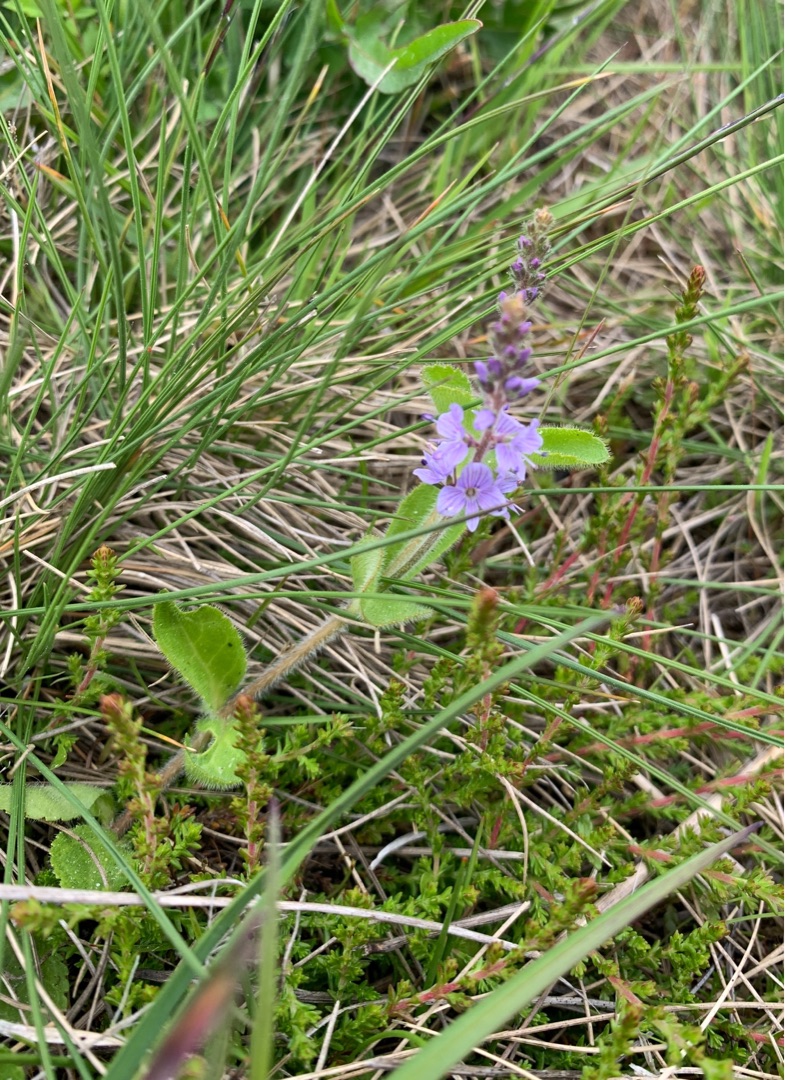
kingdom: Plantae
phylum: Tracheophyta
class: Magnoliopsida
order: Lamiales
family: Plantaginaceae
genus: Veronica
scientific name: Veronica officinalis
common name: Læge-ærenpris
